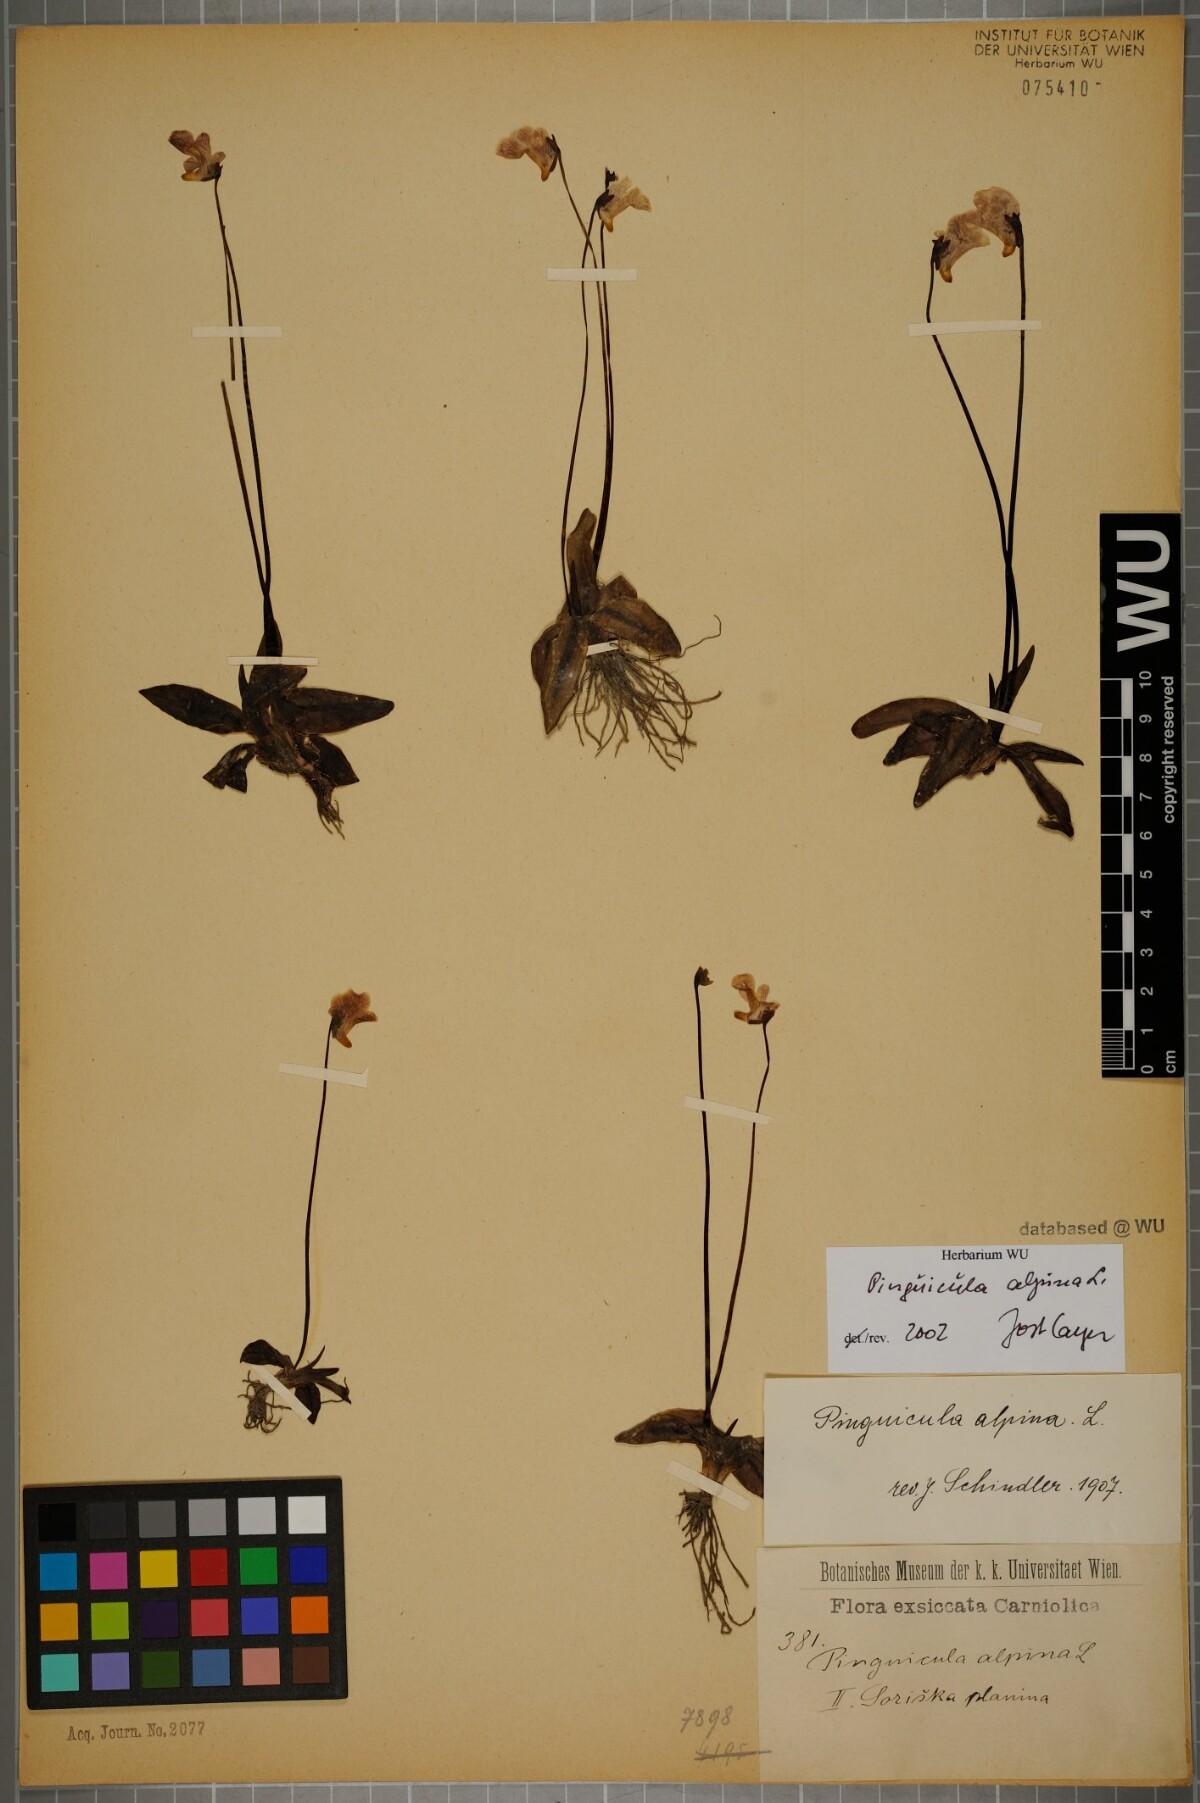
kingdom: Plantae
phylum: Tracheophyta
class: Magnoliopsida
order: Lamiales
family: Lentibulariaceae
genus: Pinguicula
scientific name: Pinguicula alpina
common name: Alpine butterwort
